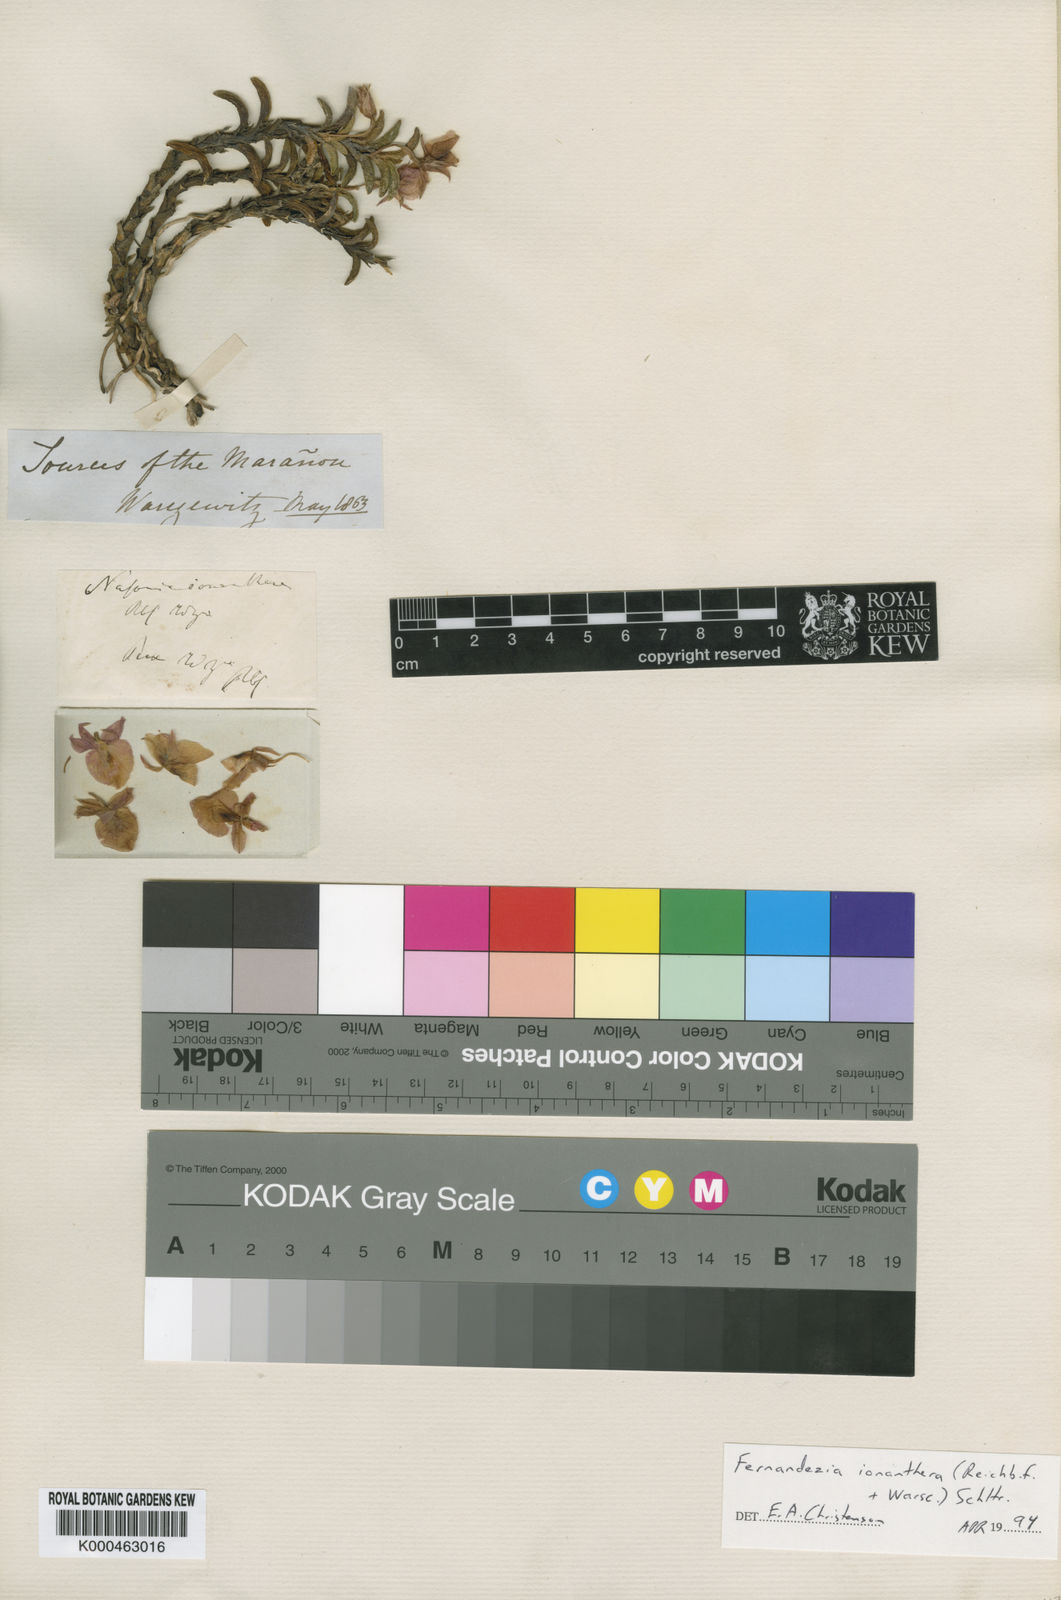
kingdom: Plantae
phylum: Tracheophyta
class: Liliopsida
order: Asparagales
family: Orchidaceae
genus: Fernandezia
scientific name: Fernandezia ionanthera
